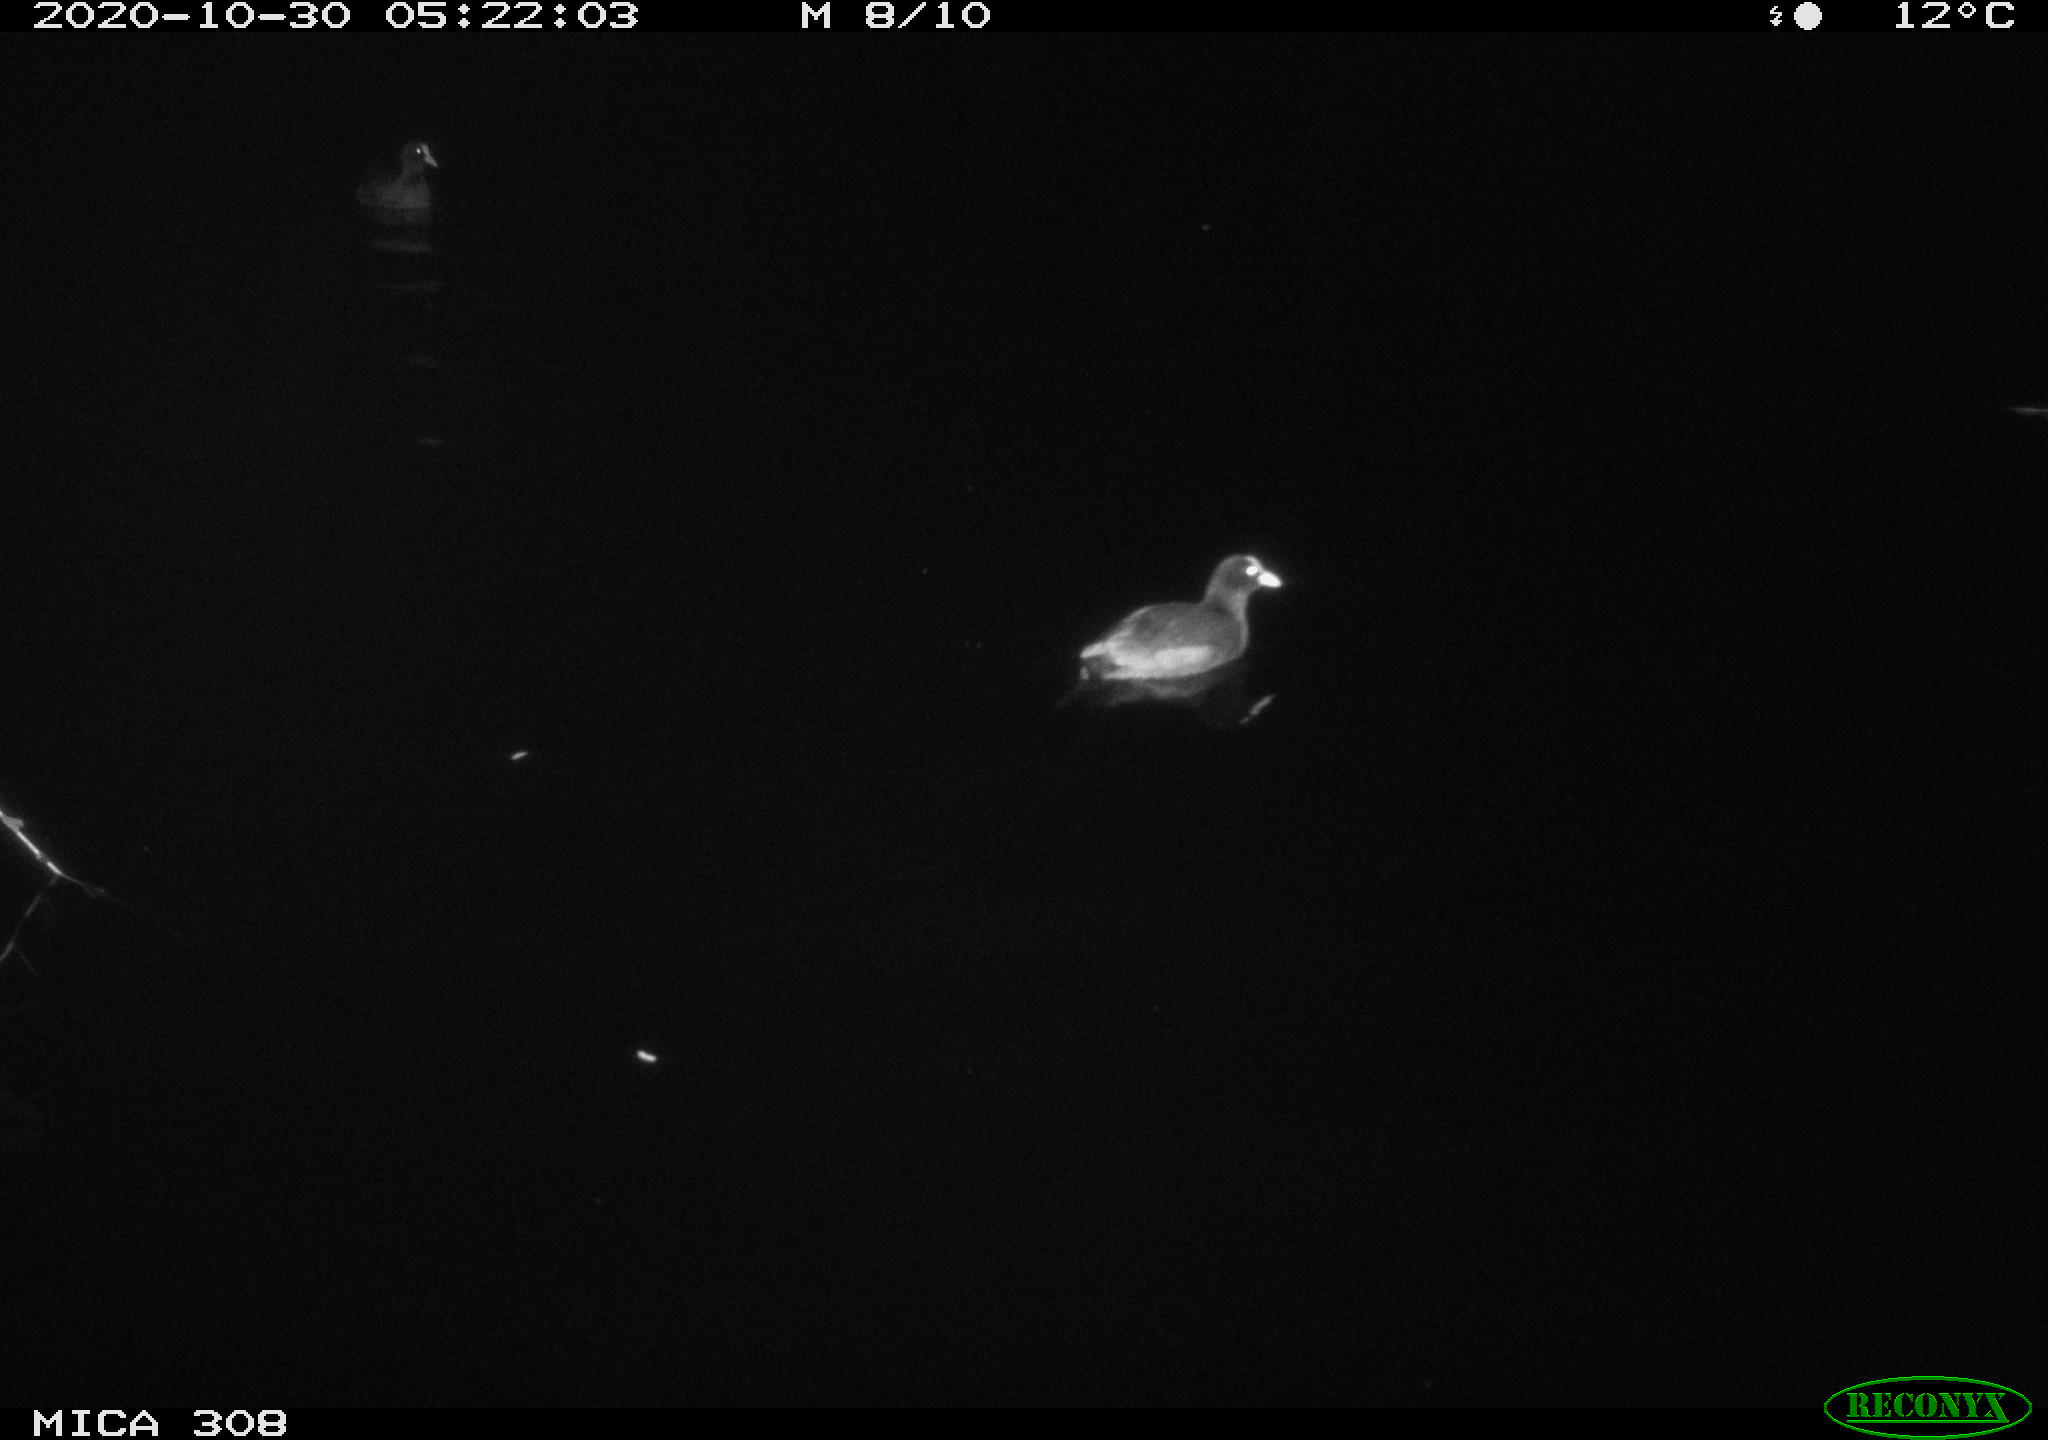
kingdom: Animalia
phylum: Chordata
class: Aves
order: Gruiformes
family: Rallidae
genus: Fulica
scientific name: Fulica atra
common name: Eurasian coot
